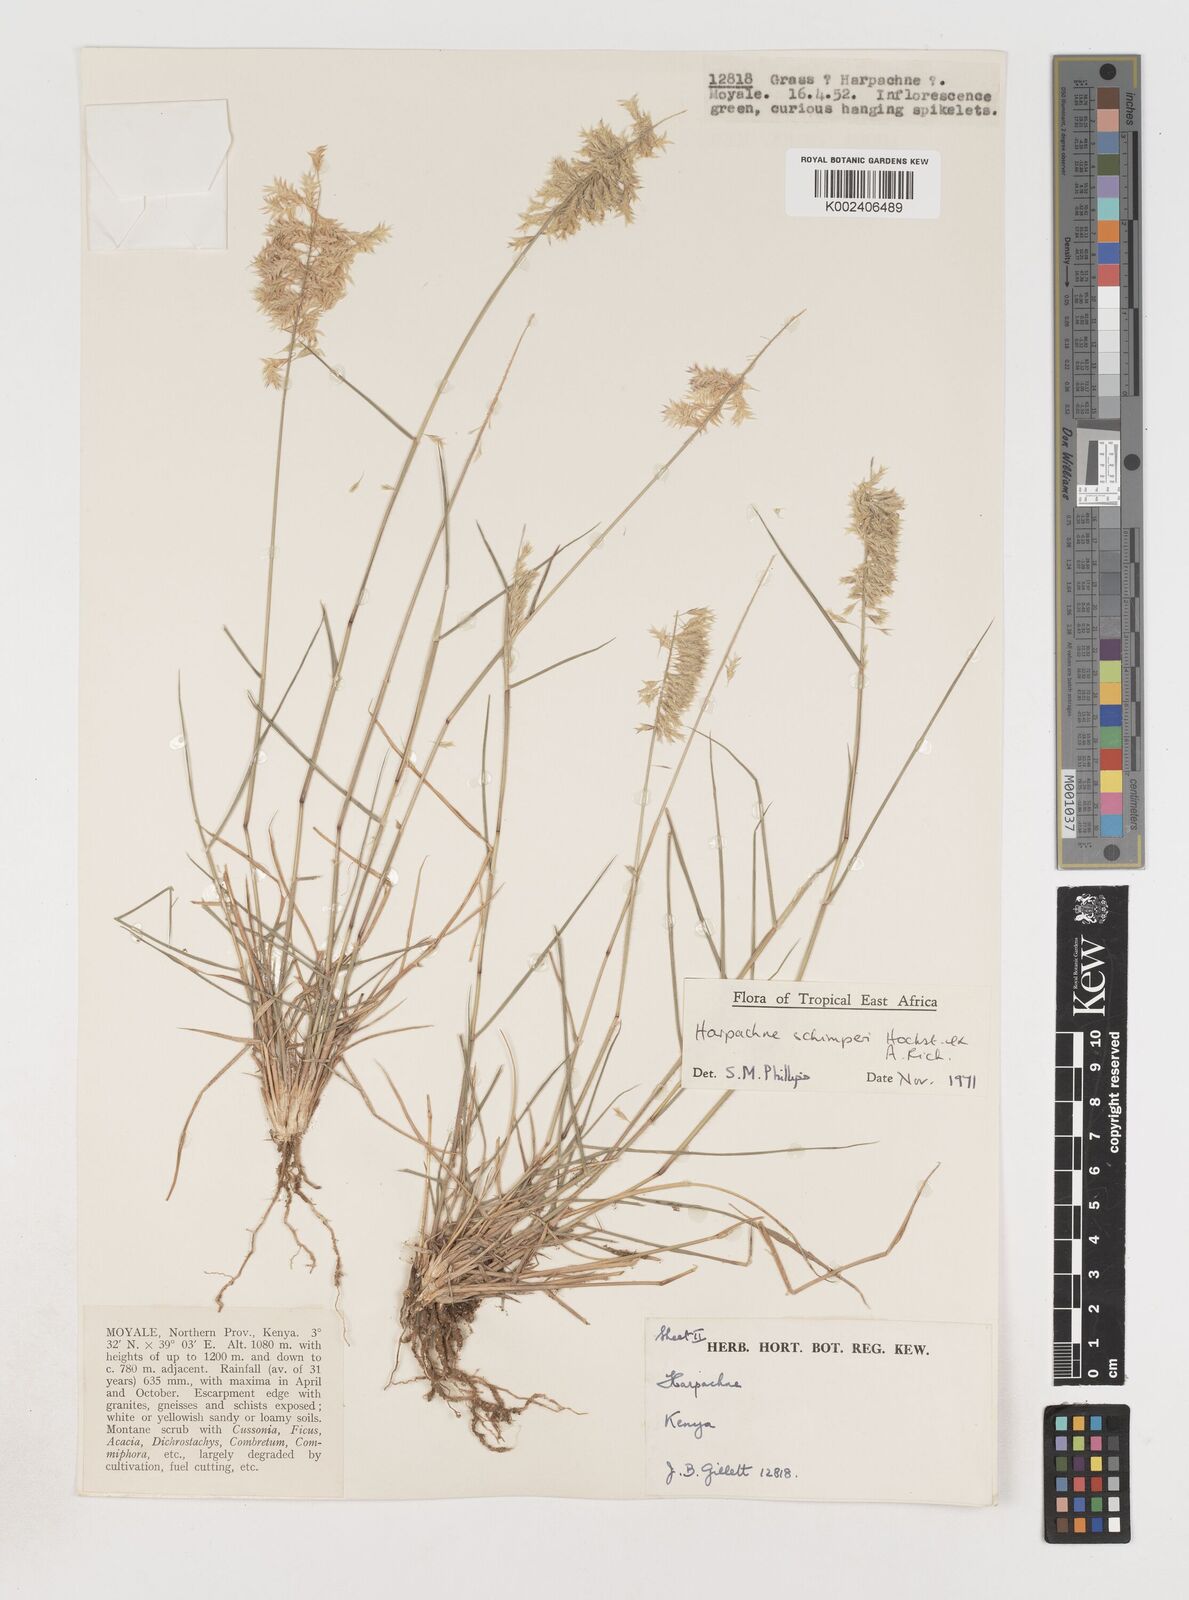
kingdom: Plantae
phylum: Tracheophyta
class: Liliopsida
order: Poales
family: Poaceae
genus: Harpachne
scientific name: Harpachne schimperi
